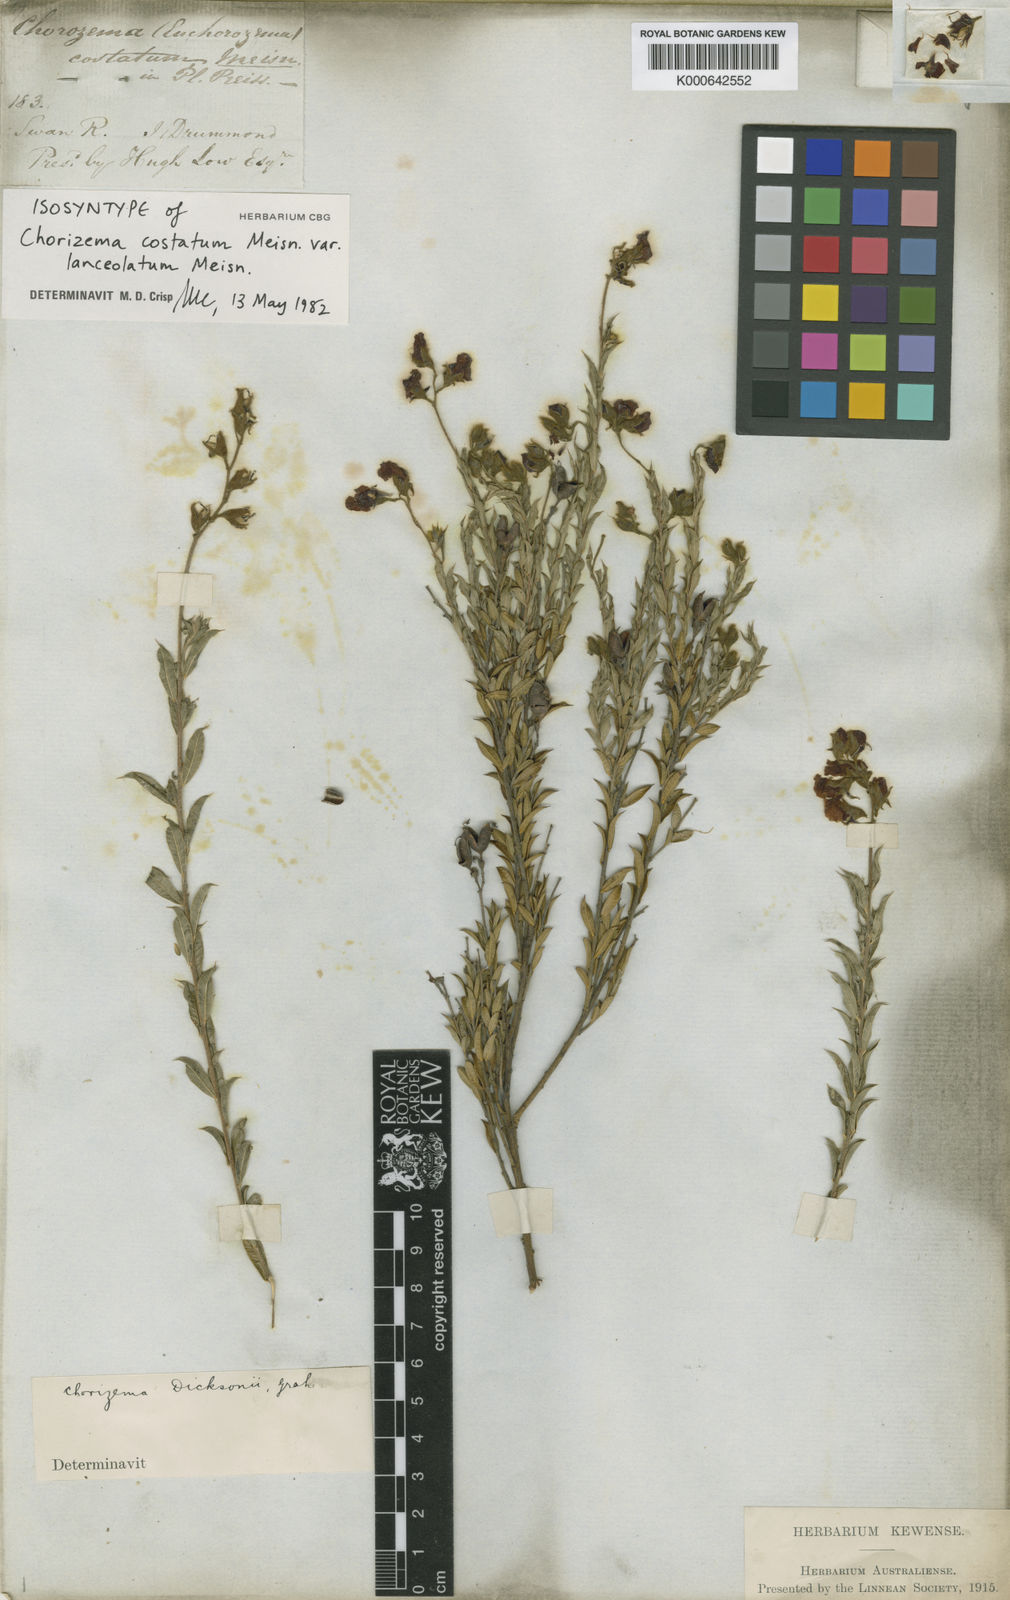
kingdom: Plantae
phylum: Tracheophyta
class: Magnoliopsida
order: Fabales
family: Fabaceae
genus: Chorizema
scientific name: Chorizema dicksonii
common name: Yellow-eyed flame-pea
